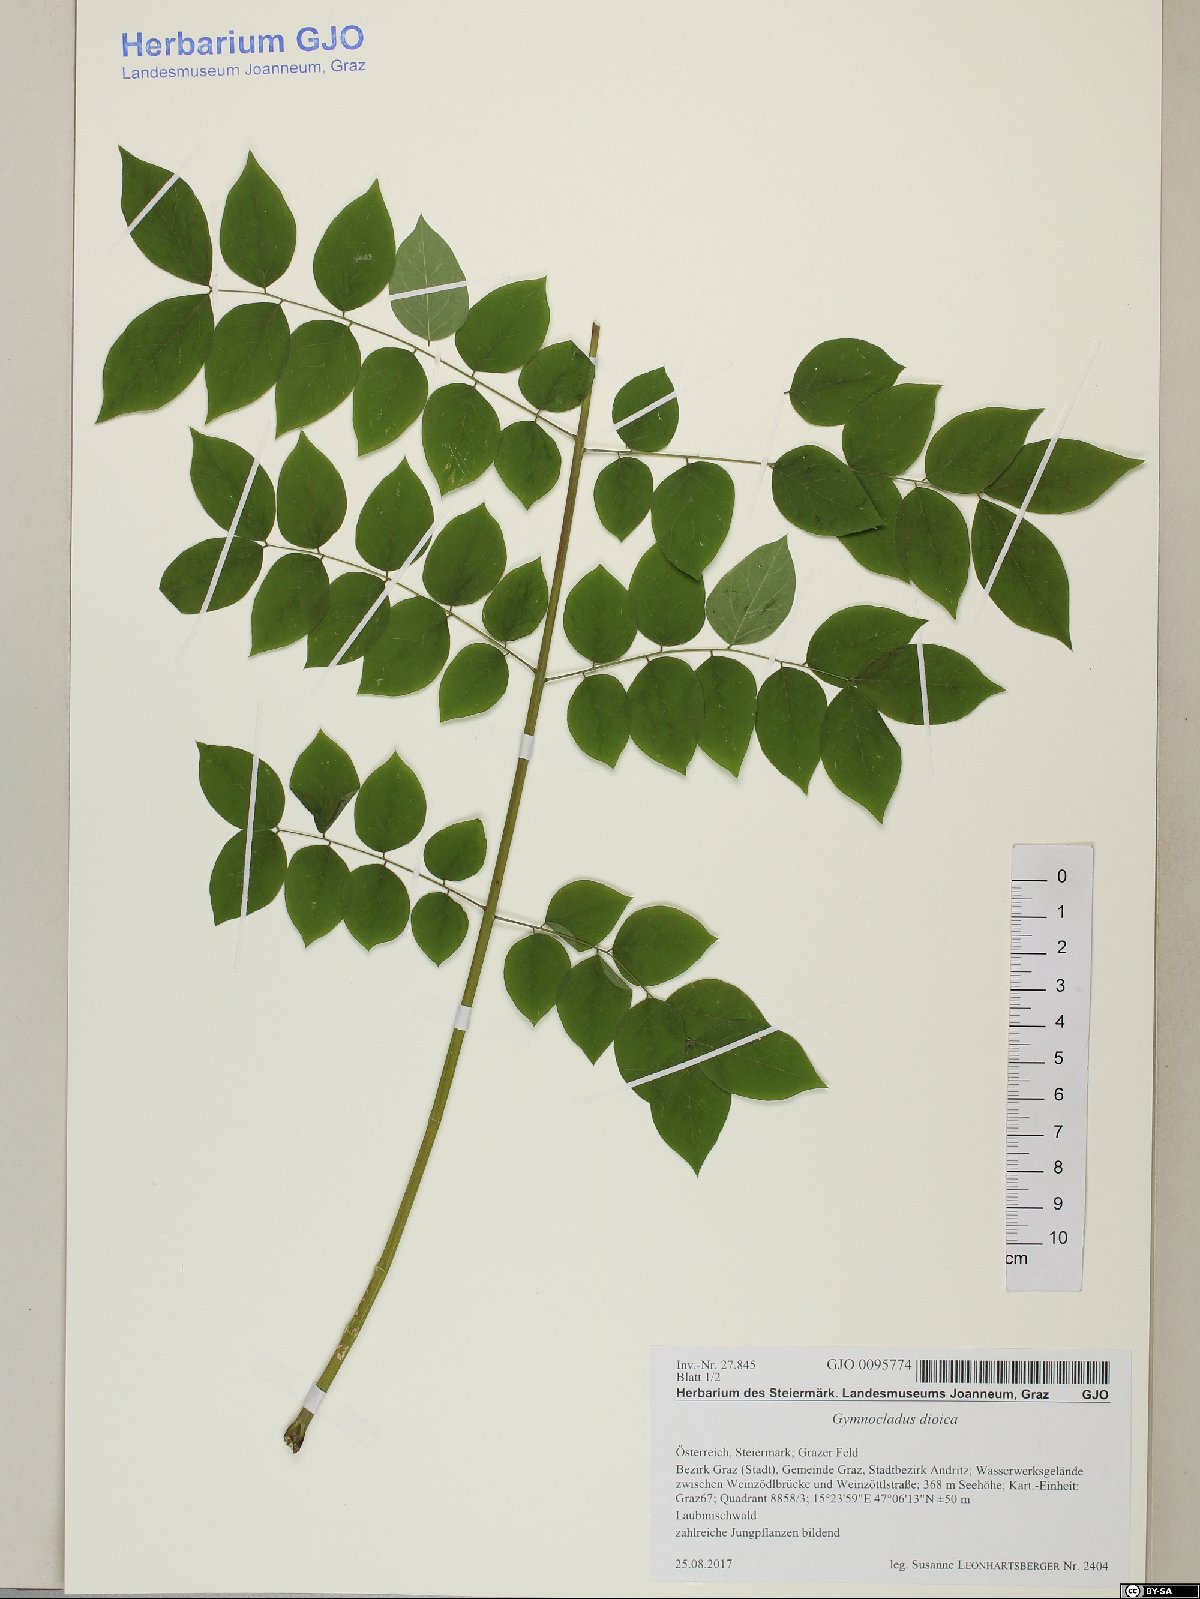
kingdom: Plantae
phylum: Tracheophyta
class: Magnoliopsida
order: Fabales
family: Fabaceae
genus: Gymnocladus
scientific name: Gymnocladus dioicus
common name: Kentucky coffee-tree
